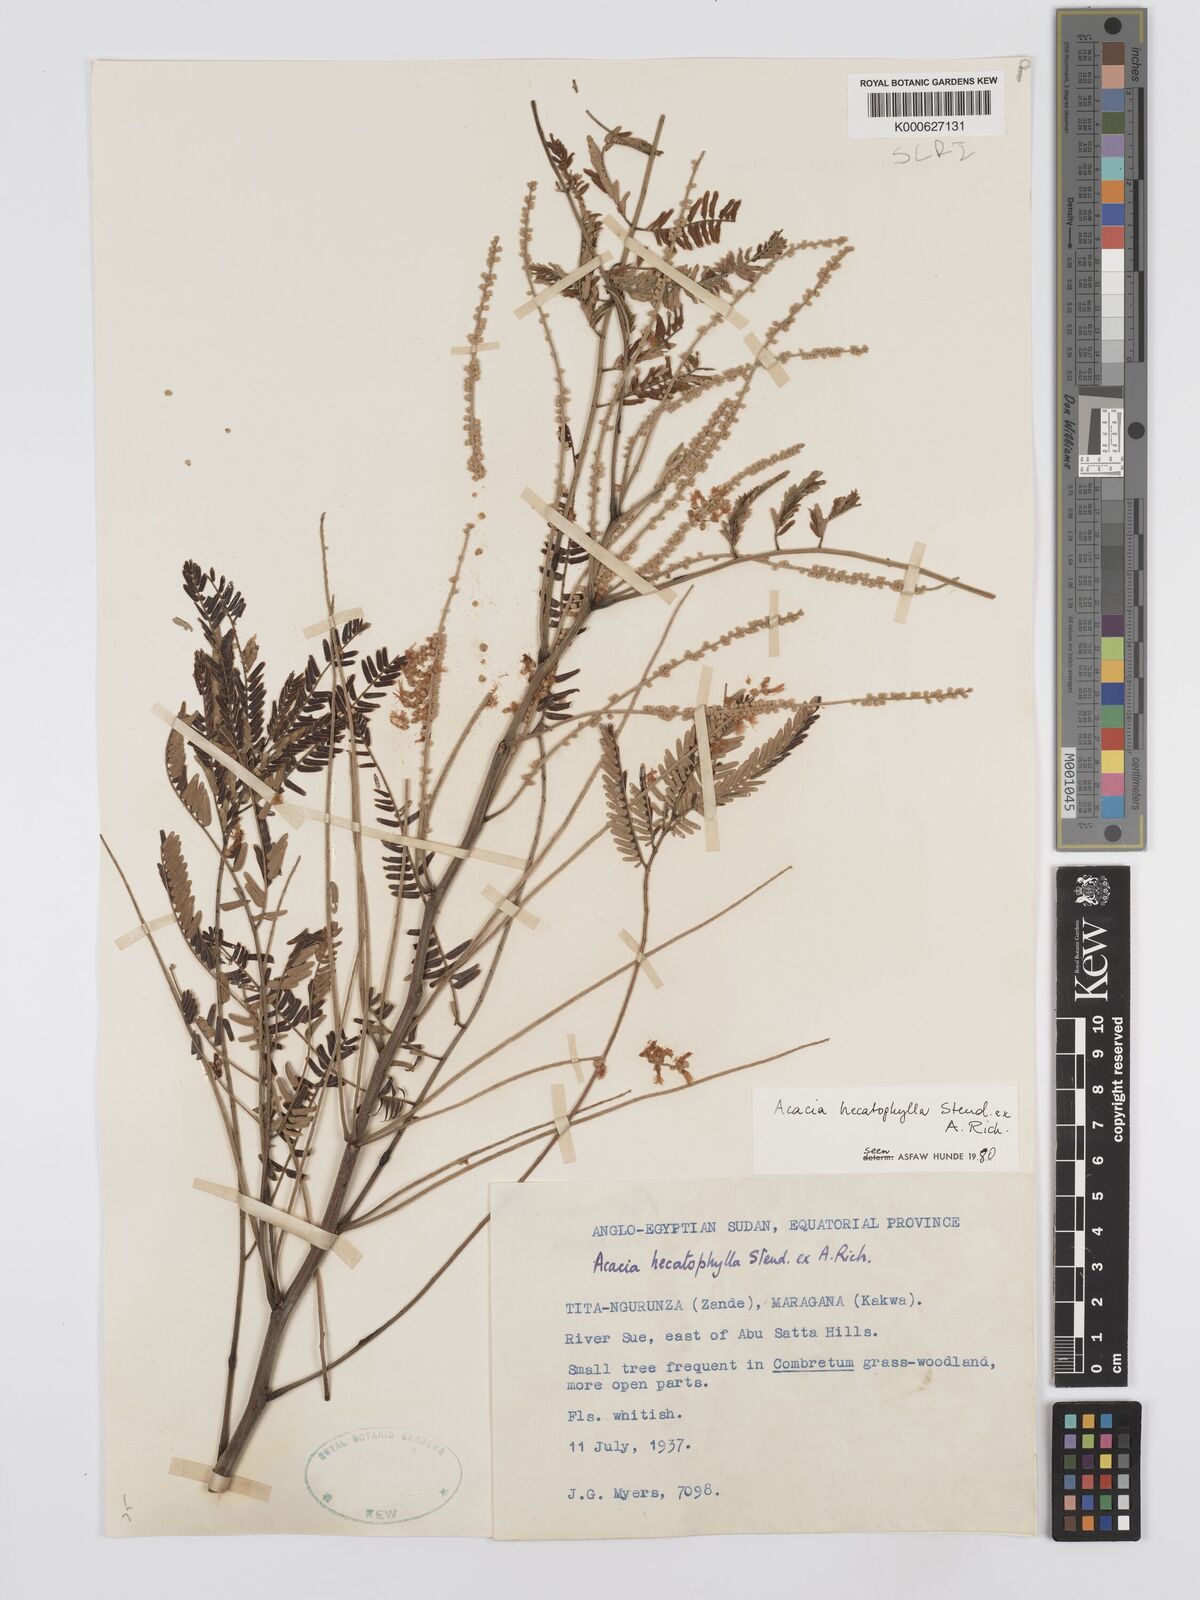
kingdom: Plantae
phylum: Tracheophyta
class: Magnoliopsida
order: Fabales
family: Fabaceae
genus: Senegalia
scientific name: Senegalia hecatophylla
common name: Long pod
